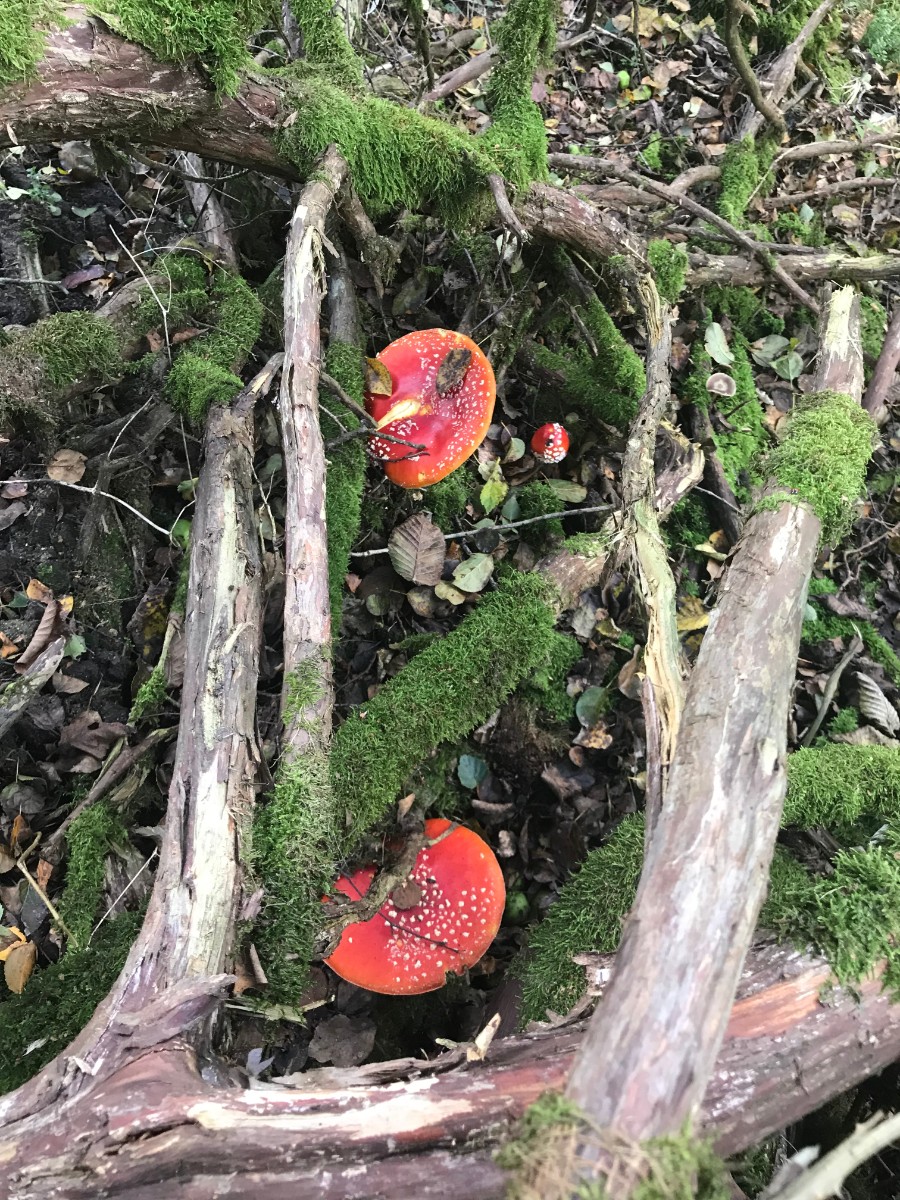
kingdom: Fungi
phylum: Basidiomycota
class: Agaricomycetes
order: Agaricales
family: Amanitaceae
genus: Amanita
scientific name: Amanita muscaria
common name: rød fluesvamp
